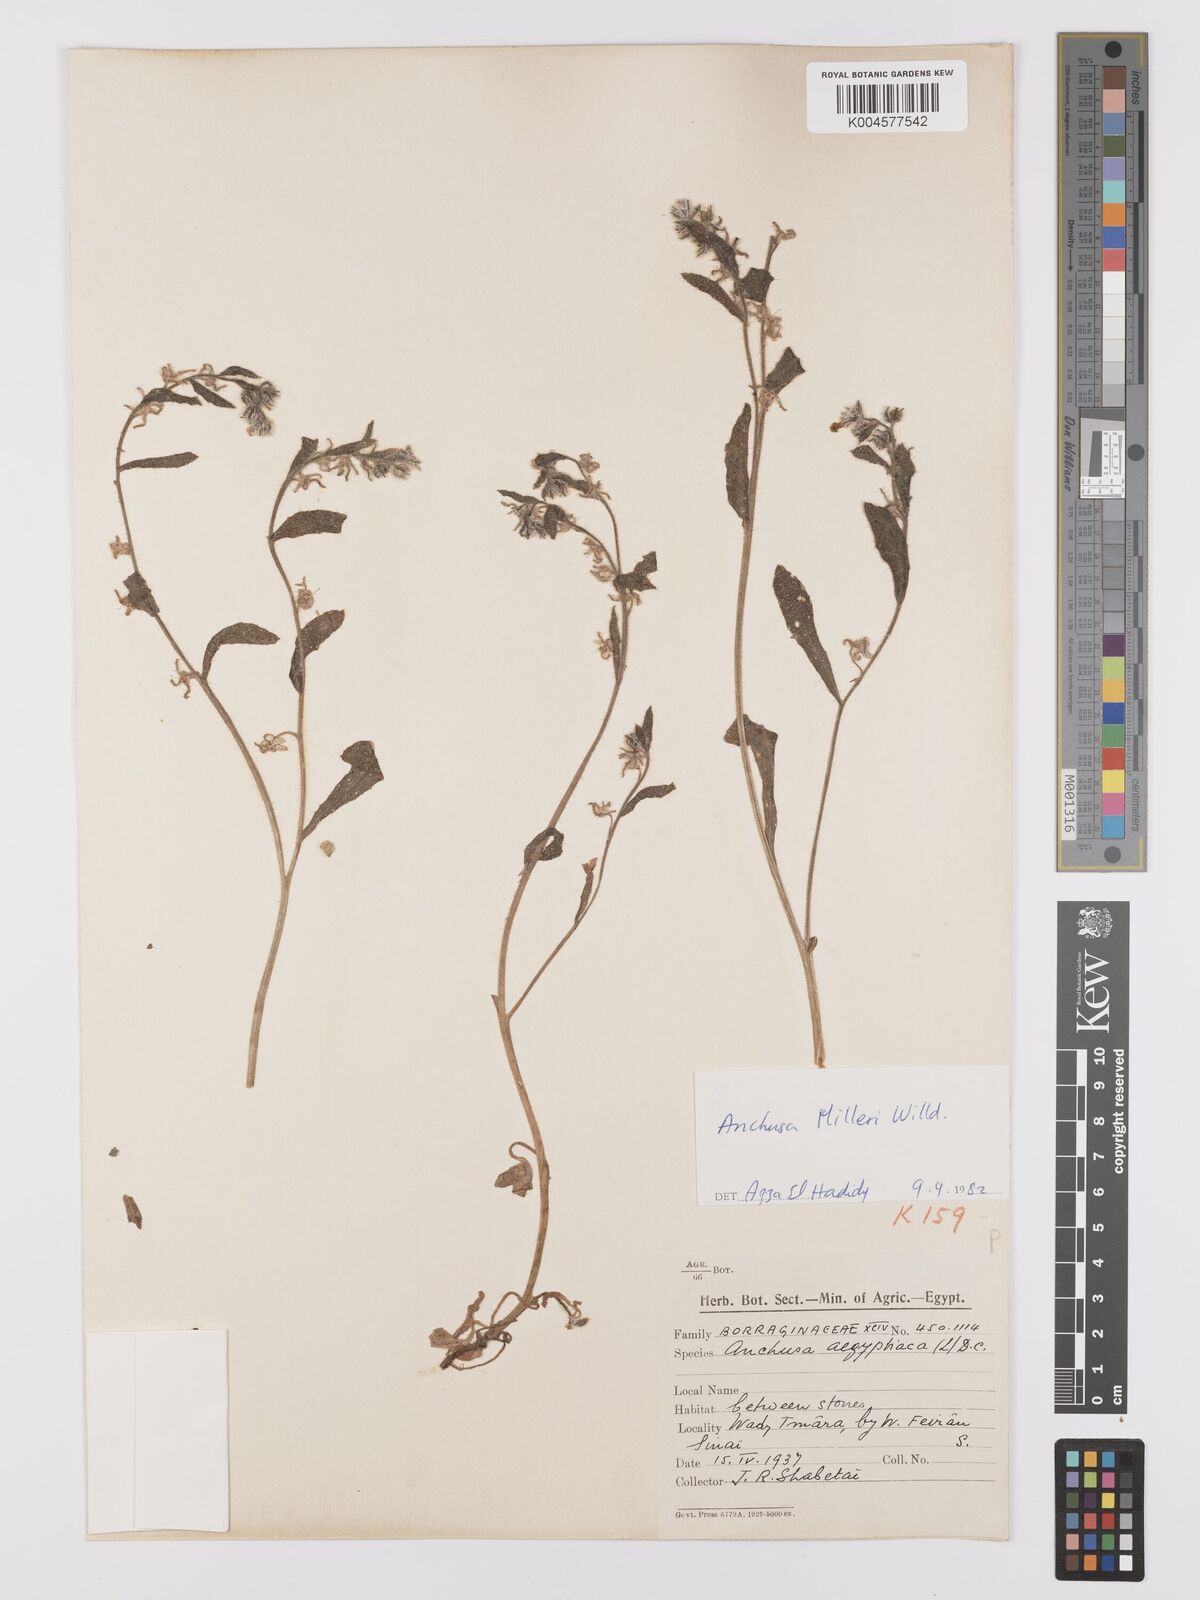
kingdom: Plantae
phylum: Tracheophyta
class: Magnoliopsida
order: Boraginales
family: Boraginaceae
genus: Anchusa
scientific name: Anchusa milleri
